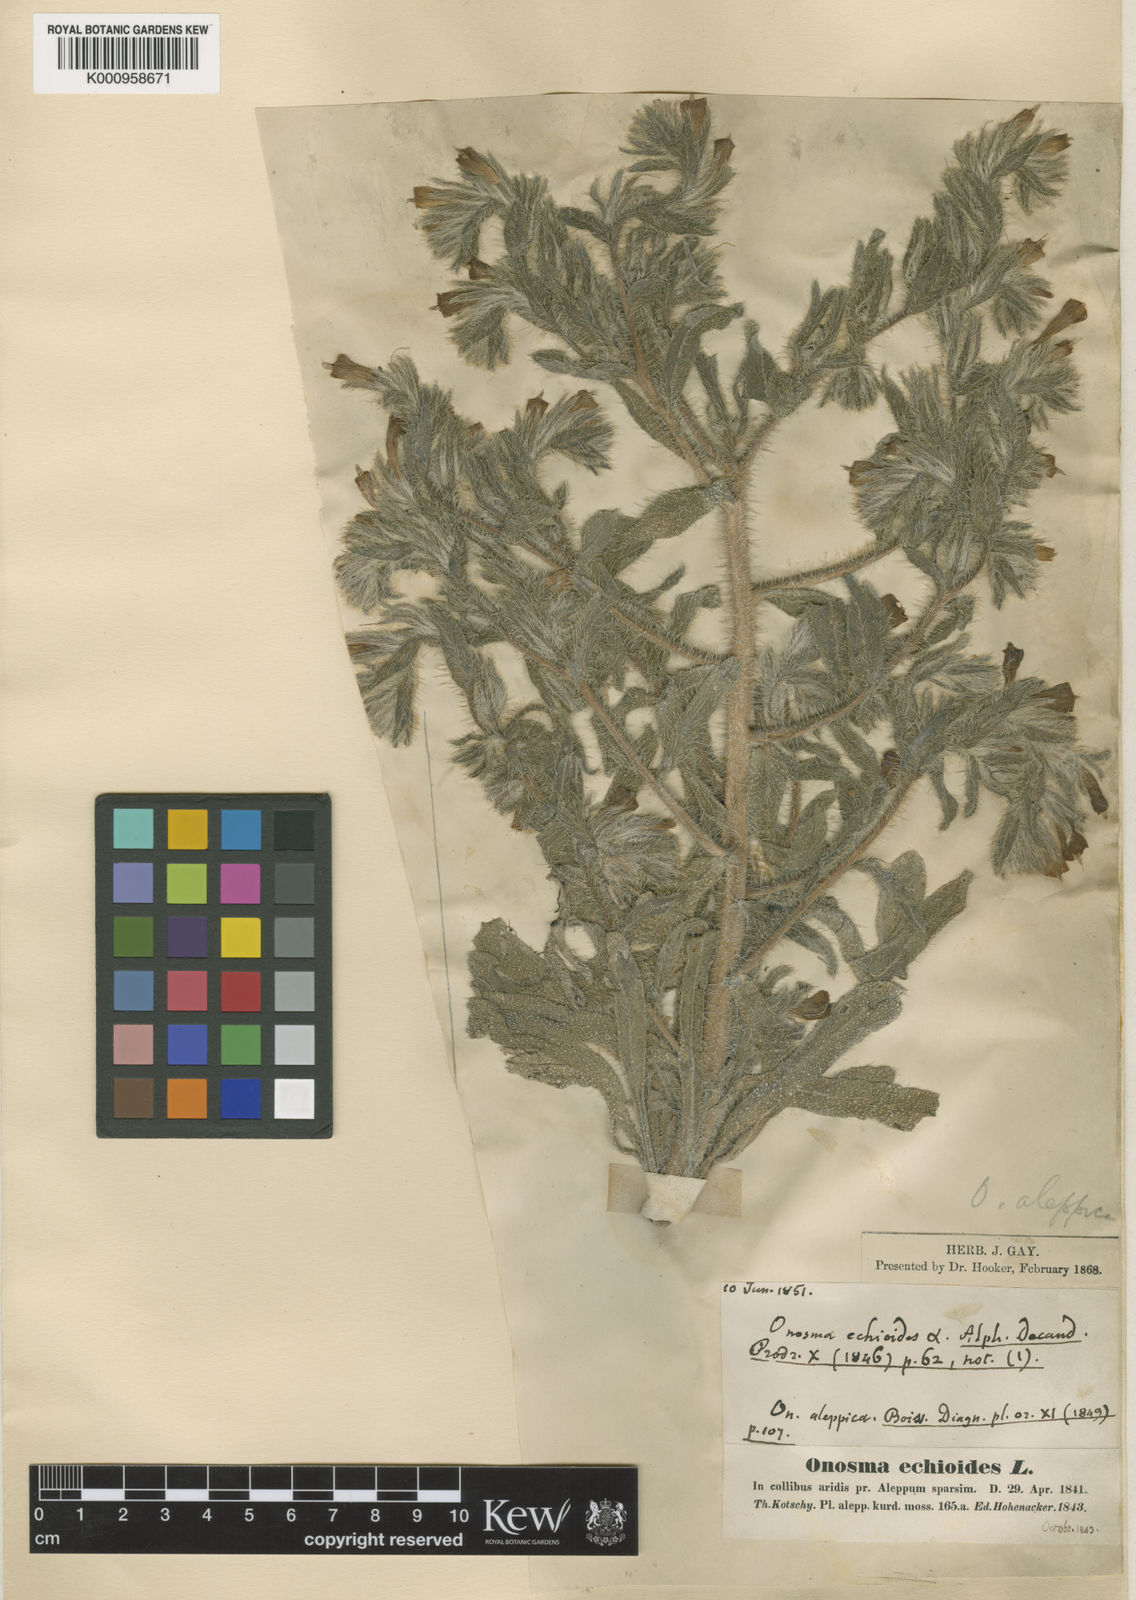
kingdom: Plantae
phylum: Tracheophyta
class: Magnoliopsida
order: Boraginales
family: Boraginaceae
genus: Onosma
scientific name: Onosma echinata
